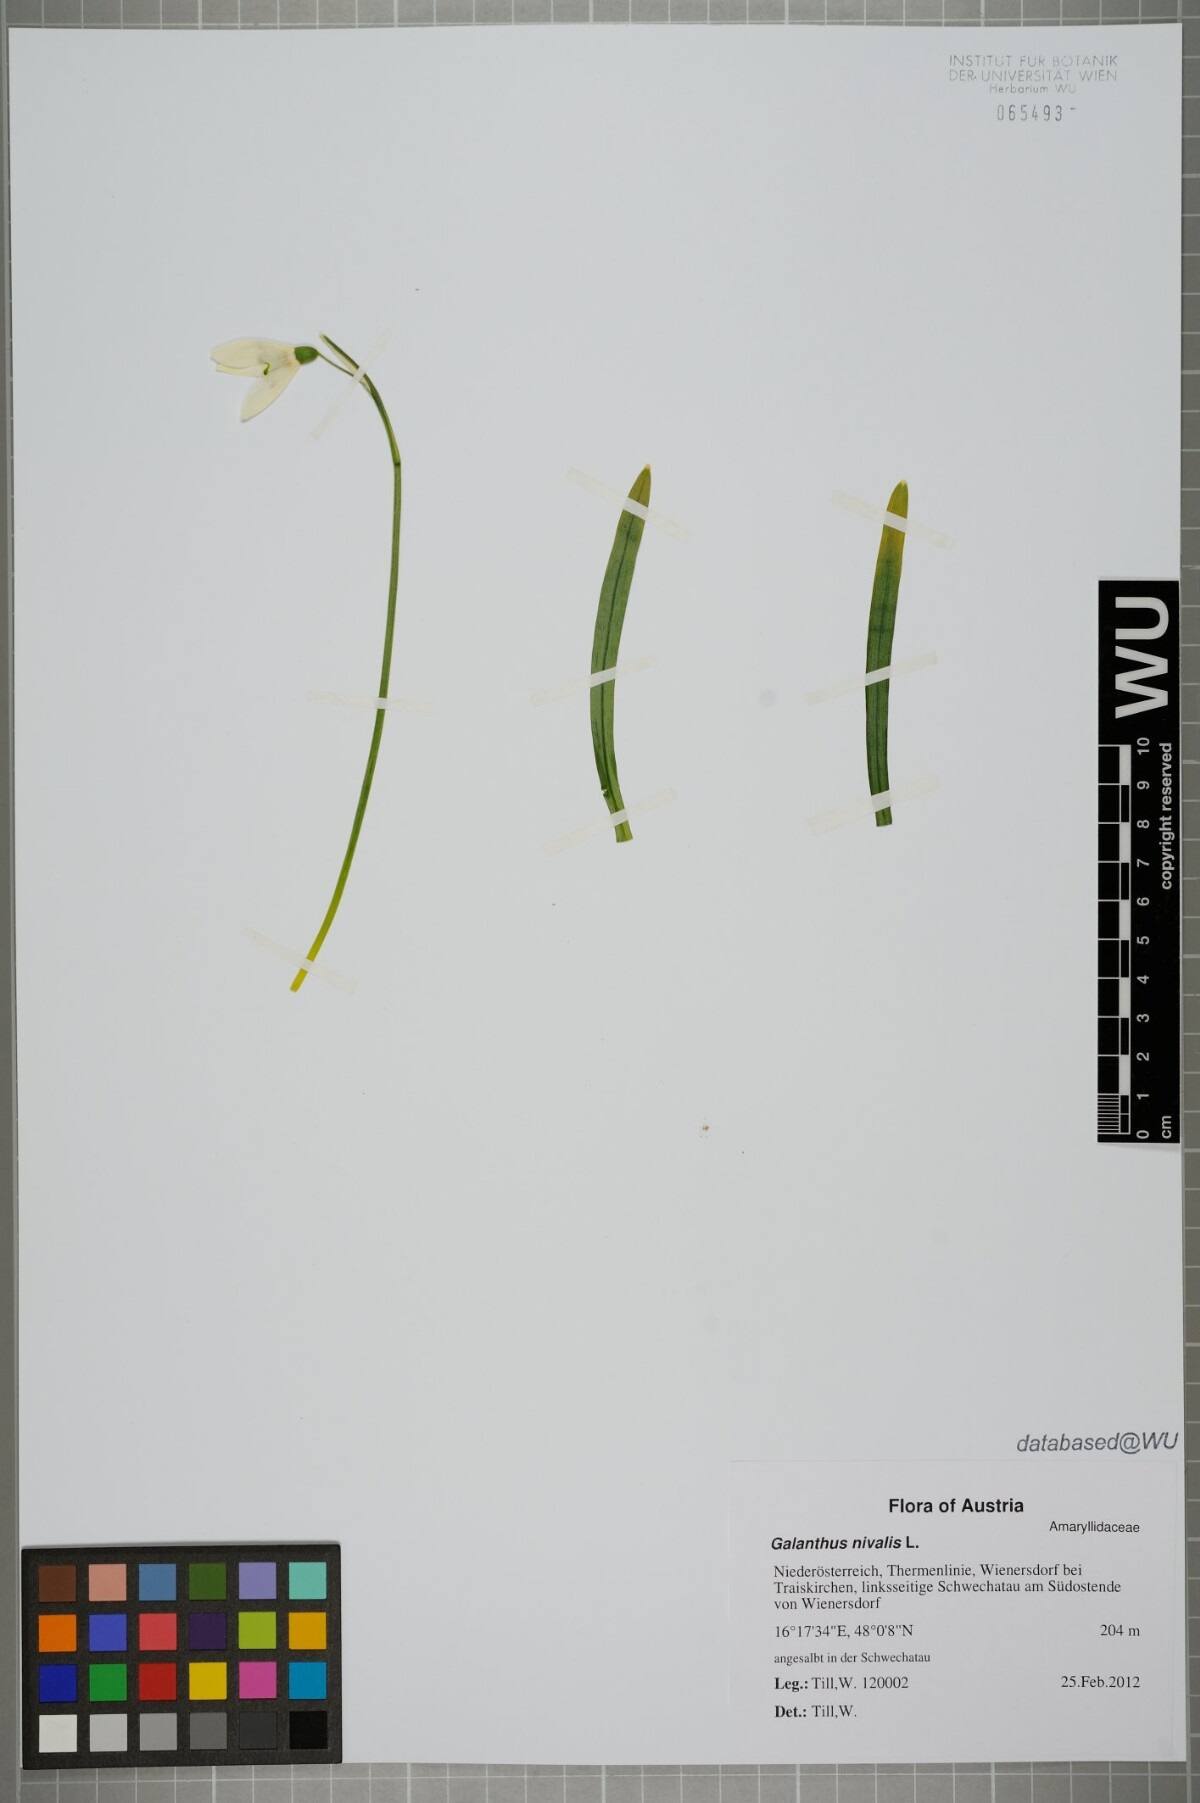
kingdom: Plantae
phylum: Tracheophyta
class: Liliopsida
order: Asparagales
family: Amaryllidaceae
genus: Galanthus
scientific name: Galanthus nivalis
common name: Snowdrop
